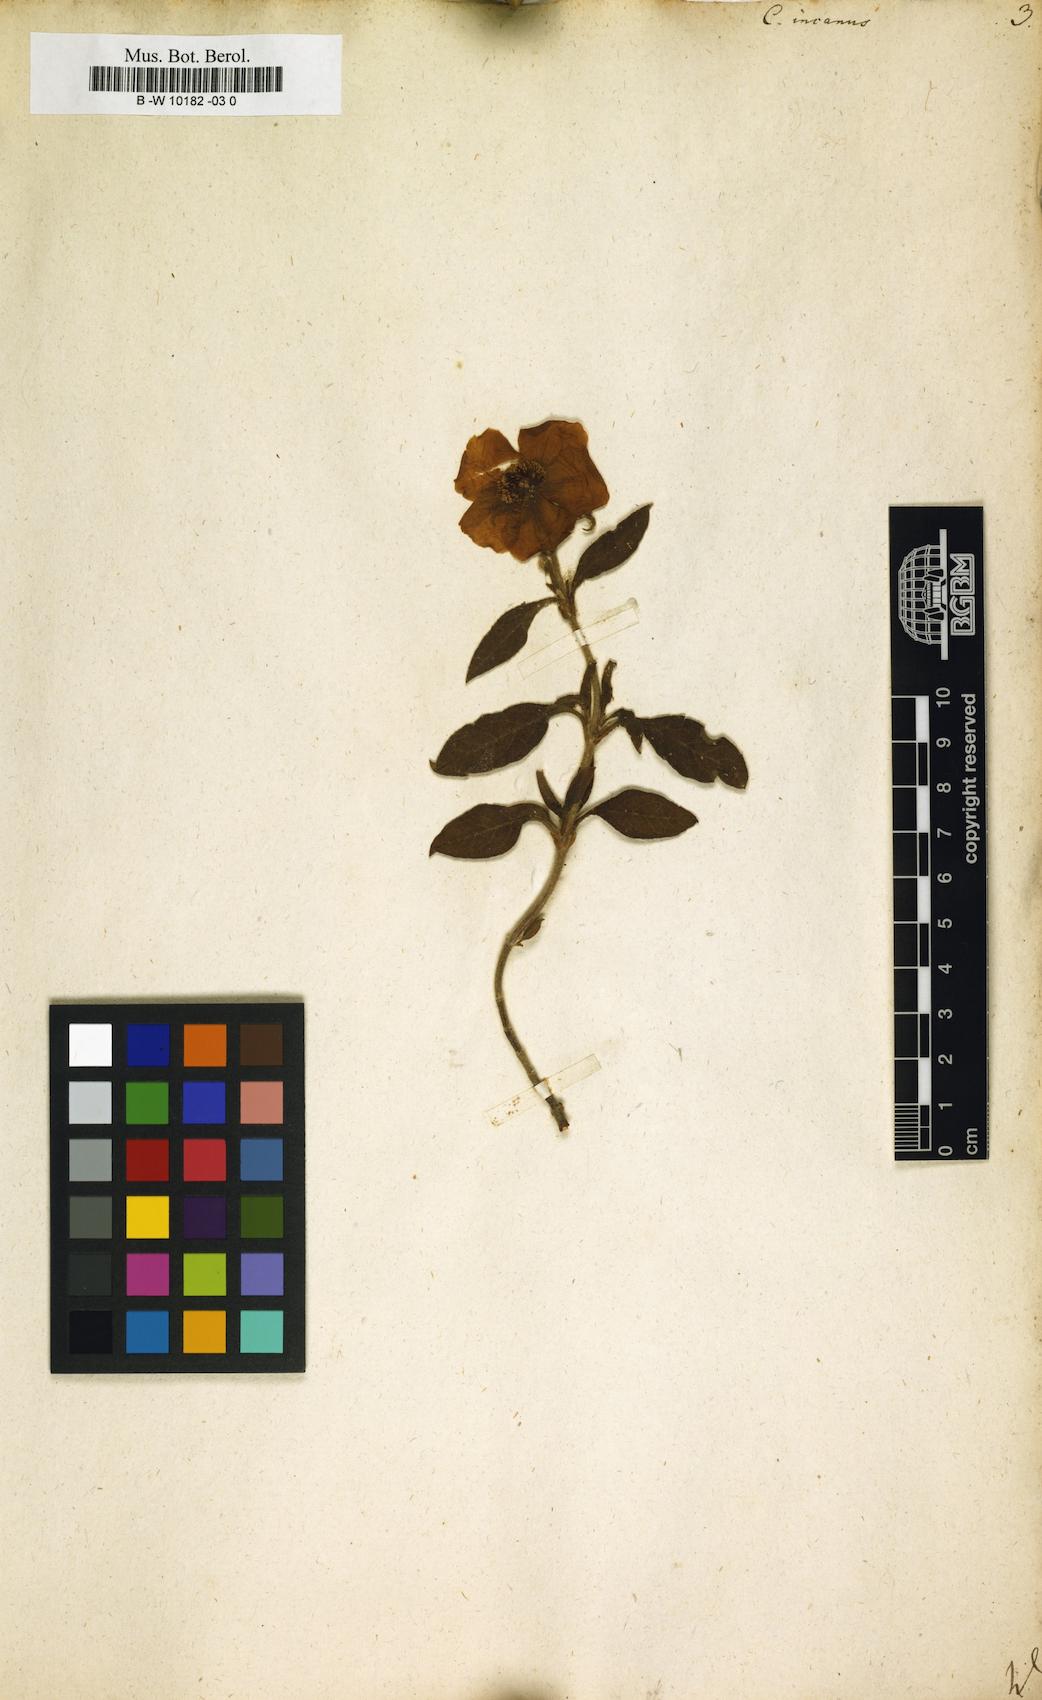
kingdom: Plantae
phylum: Tracheophyta
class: Magnoliopsida
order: Malvales
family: Cistaceae
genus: Cistus
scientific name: Cistus incanus
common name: Hairy rockrose
